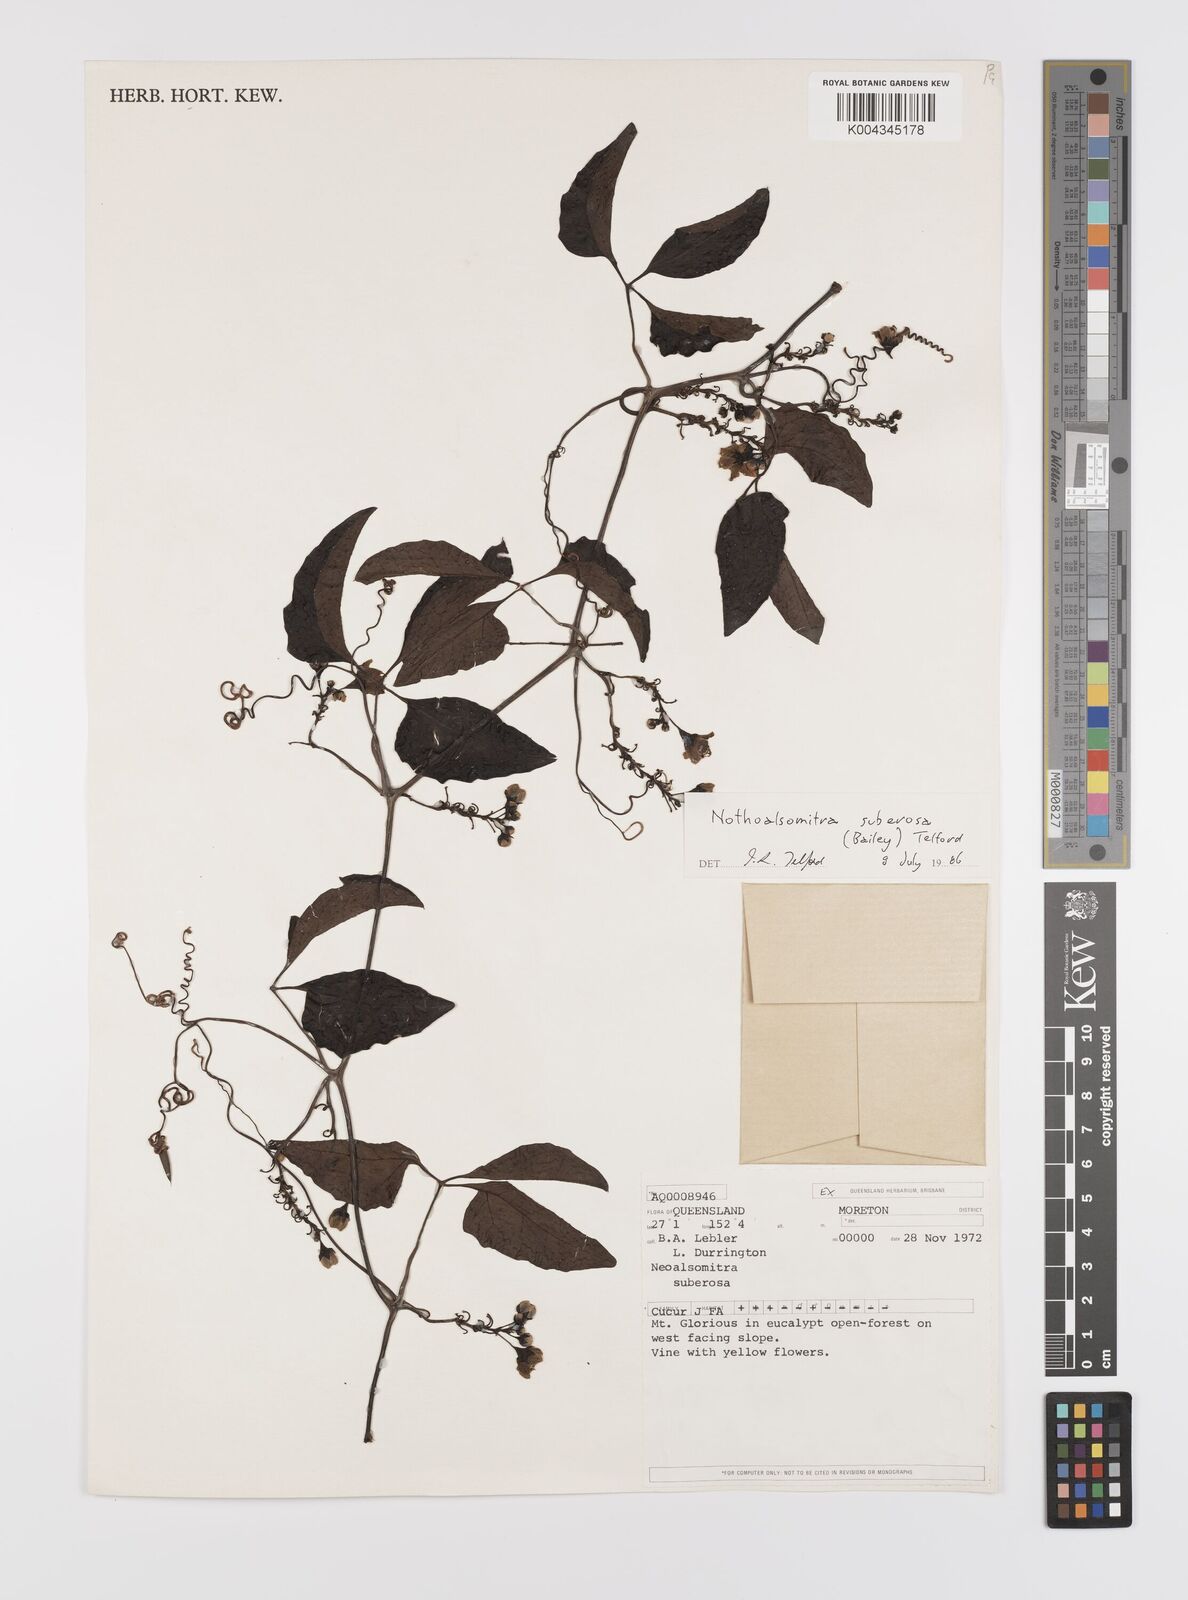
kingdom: Plantae
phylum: Tracheophyta
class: Magnoliopsida
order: Cucurbitales
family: Cucurbitaceae
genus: Nothoalsomitra
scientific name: Nothoalsomitra suberosa
